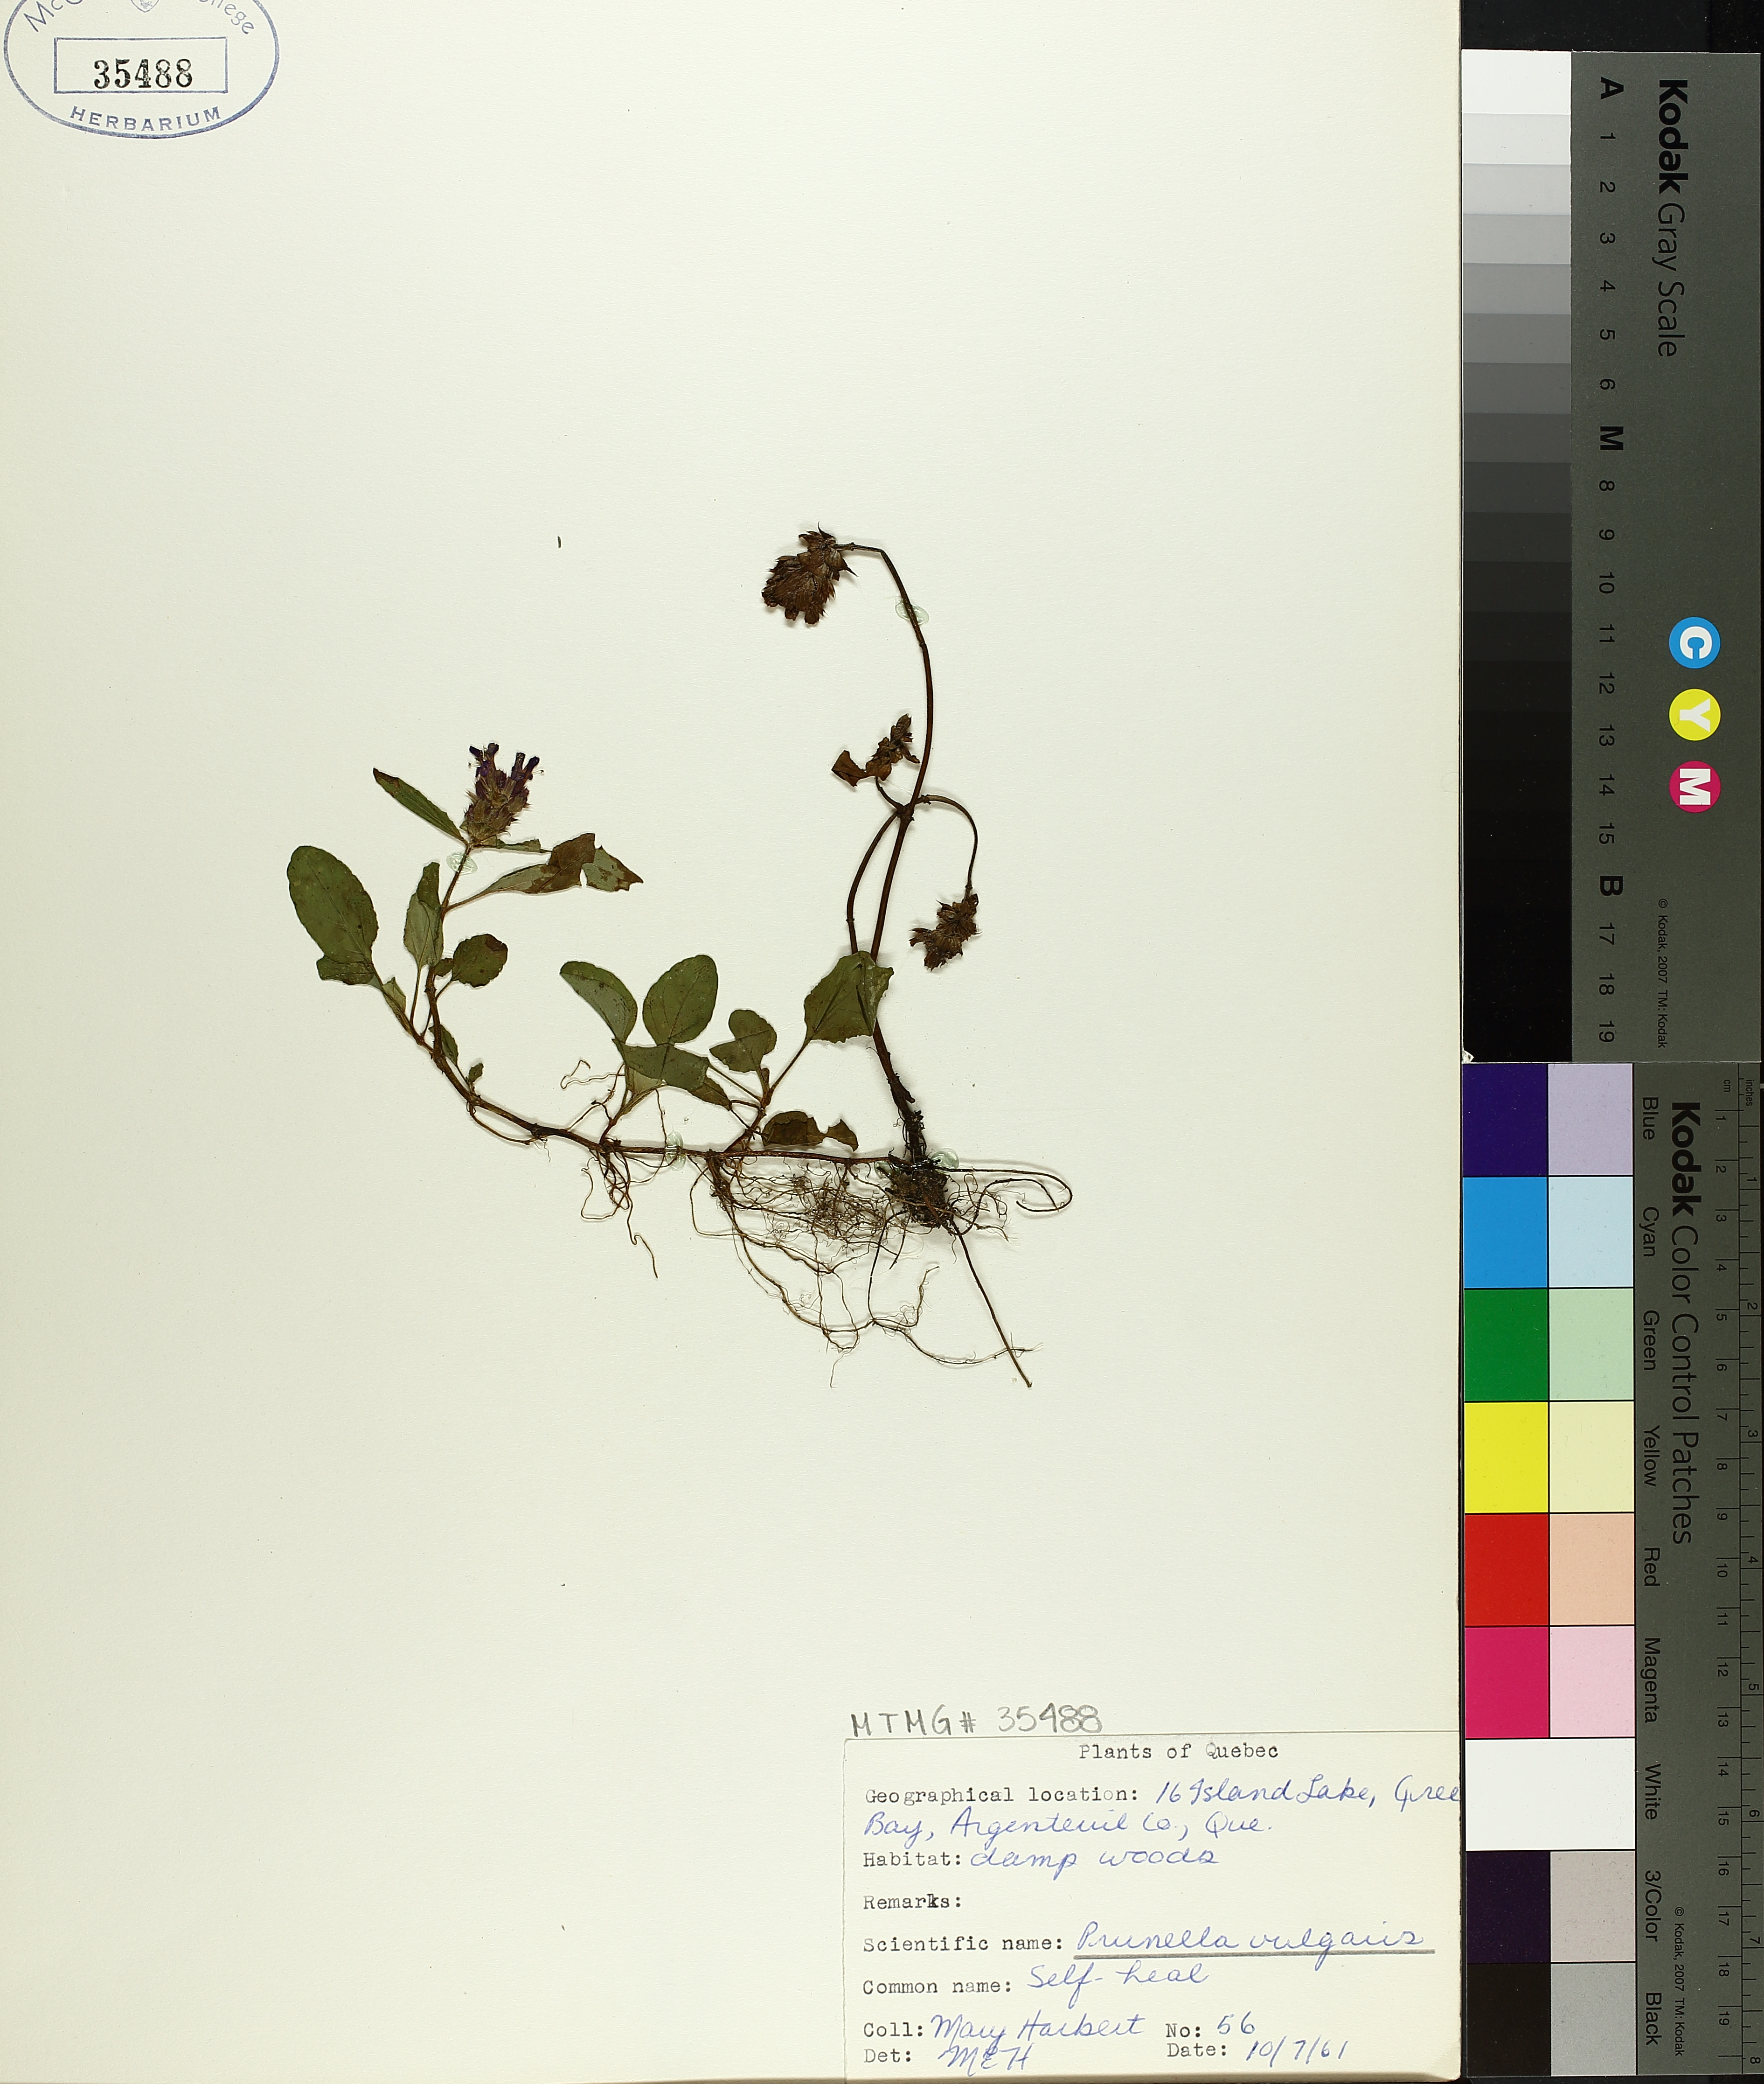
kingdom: Plantae
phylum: Tracheophyta
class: Magnoliopsida
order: Lamiales
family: Lamiaceae
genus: Prunella
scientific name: Prunella vulgaris
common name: Heal-all
